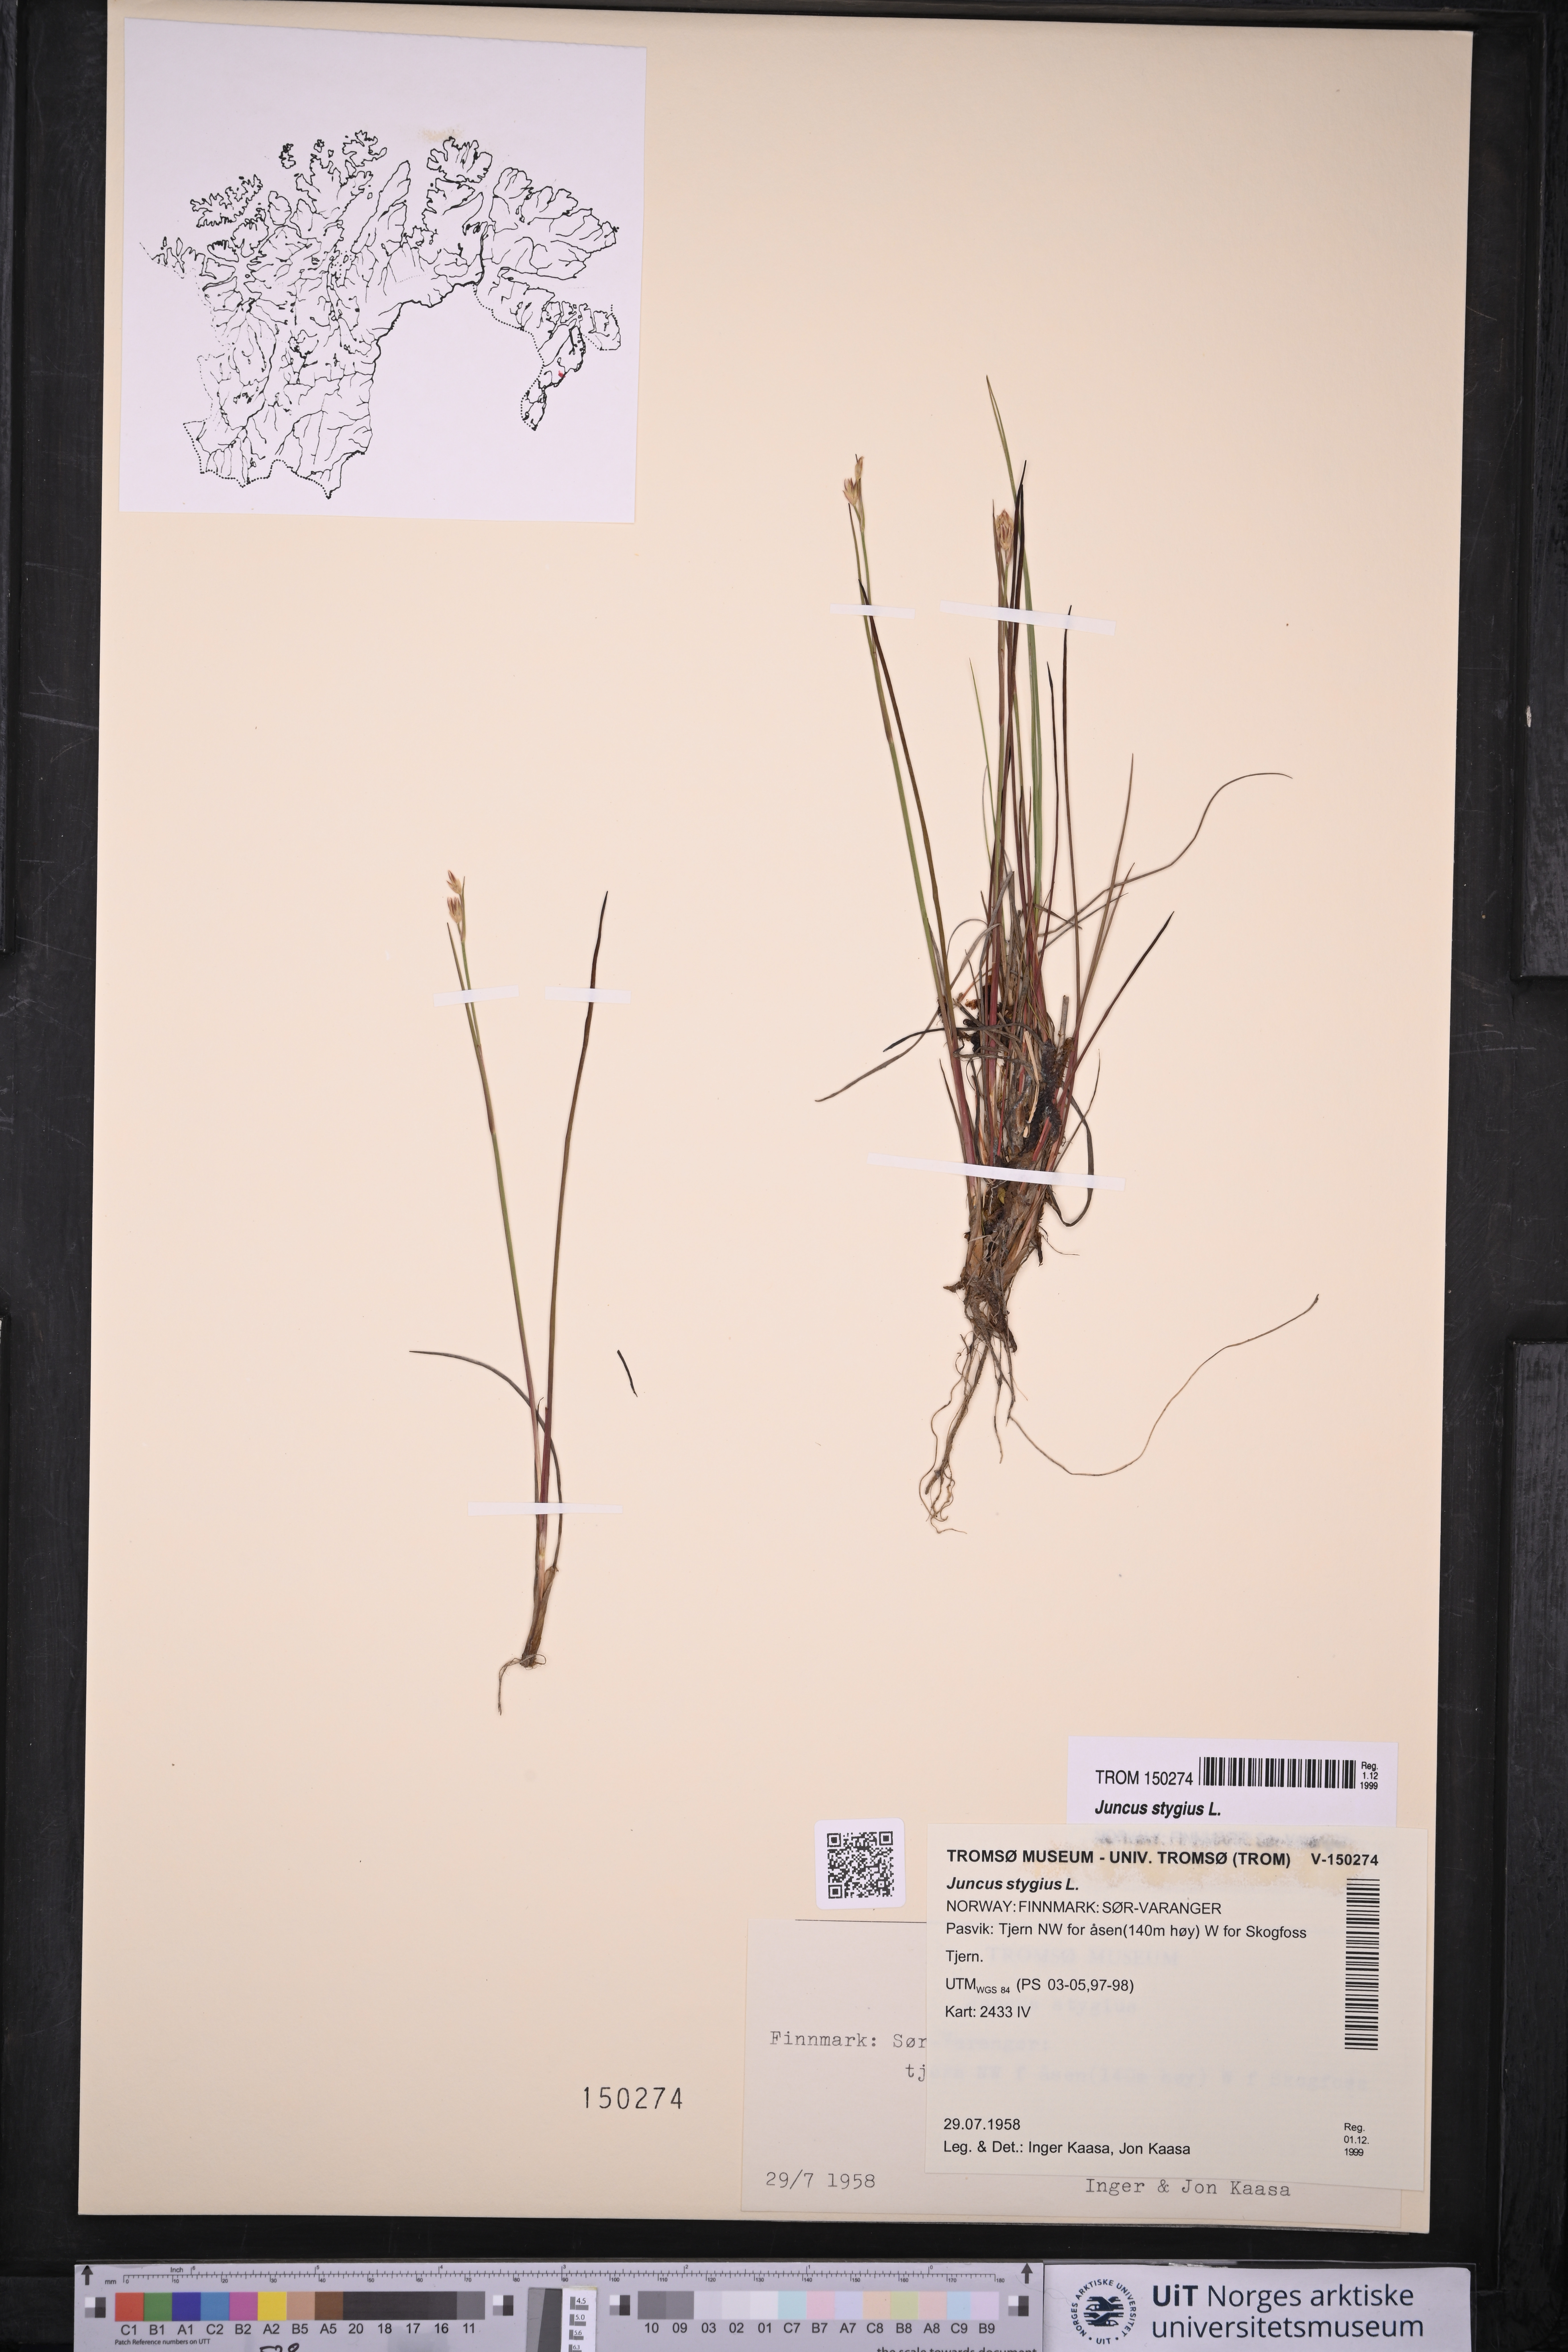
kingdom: Plantae
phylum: Tracheophyta
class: Liliopsida
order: Poales
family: Juncaceae
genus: Juncus
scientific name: Juncus stygius
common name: Bog rush
